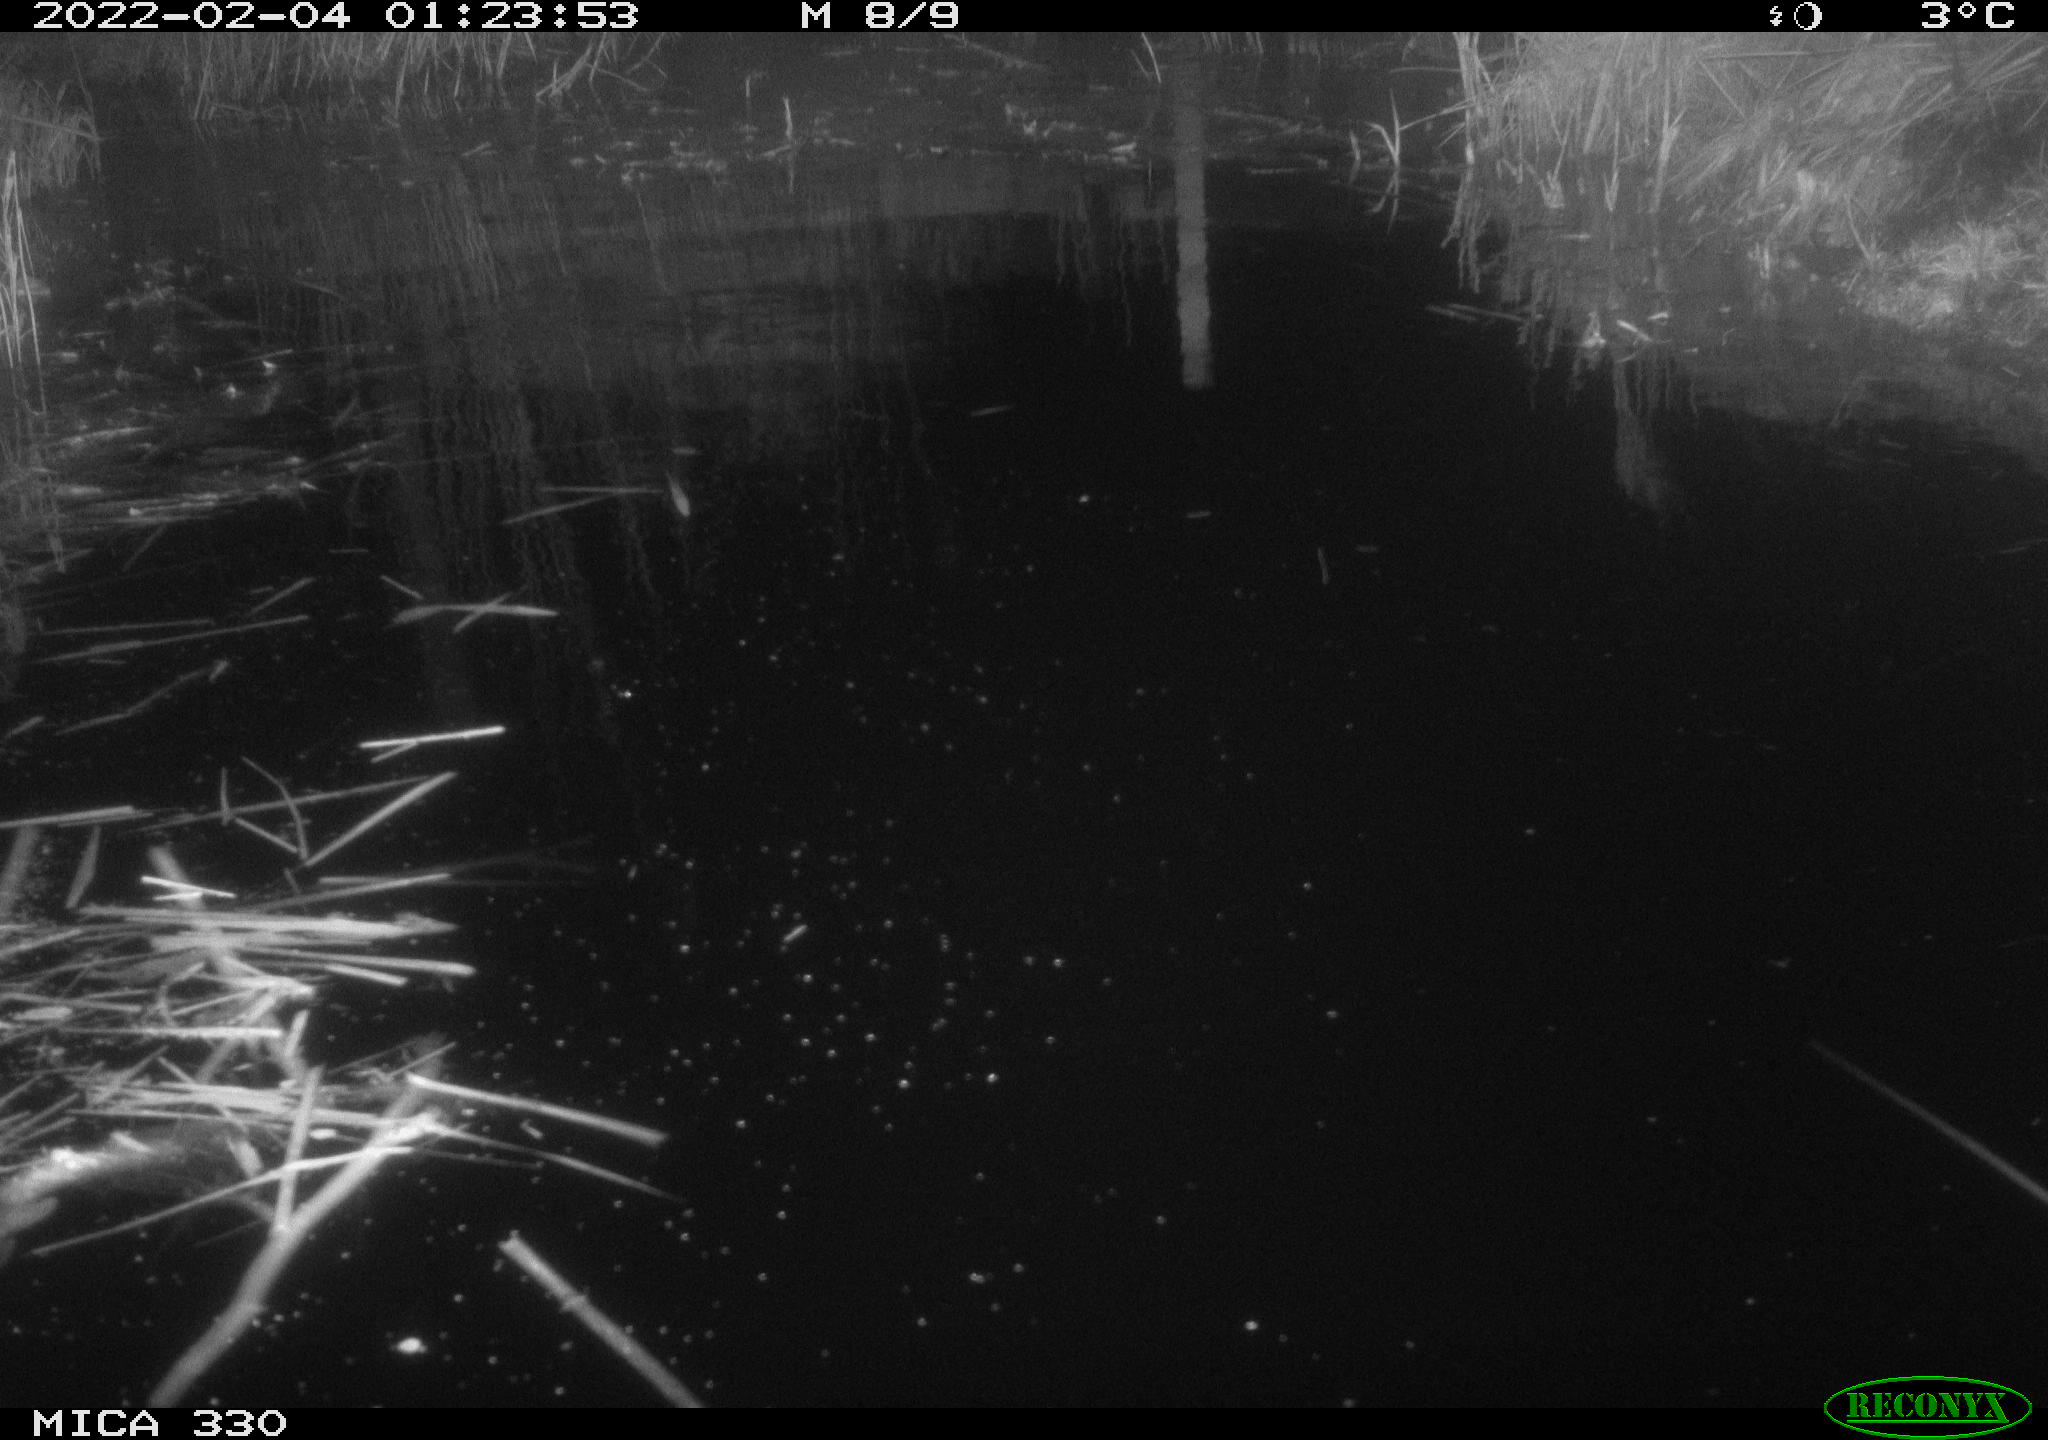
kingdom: Animalia
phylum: Chordata
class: Aves
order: Gruiformes
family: Rallidae
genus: Gallinula
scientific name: Gallinula chloropus
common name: Common moorhen
